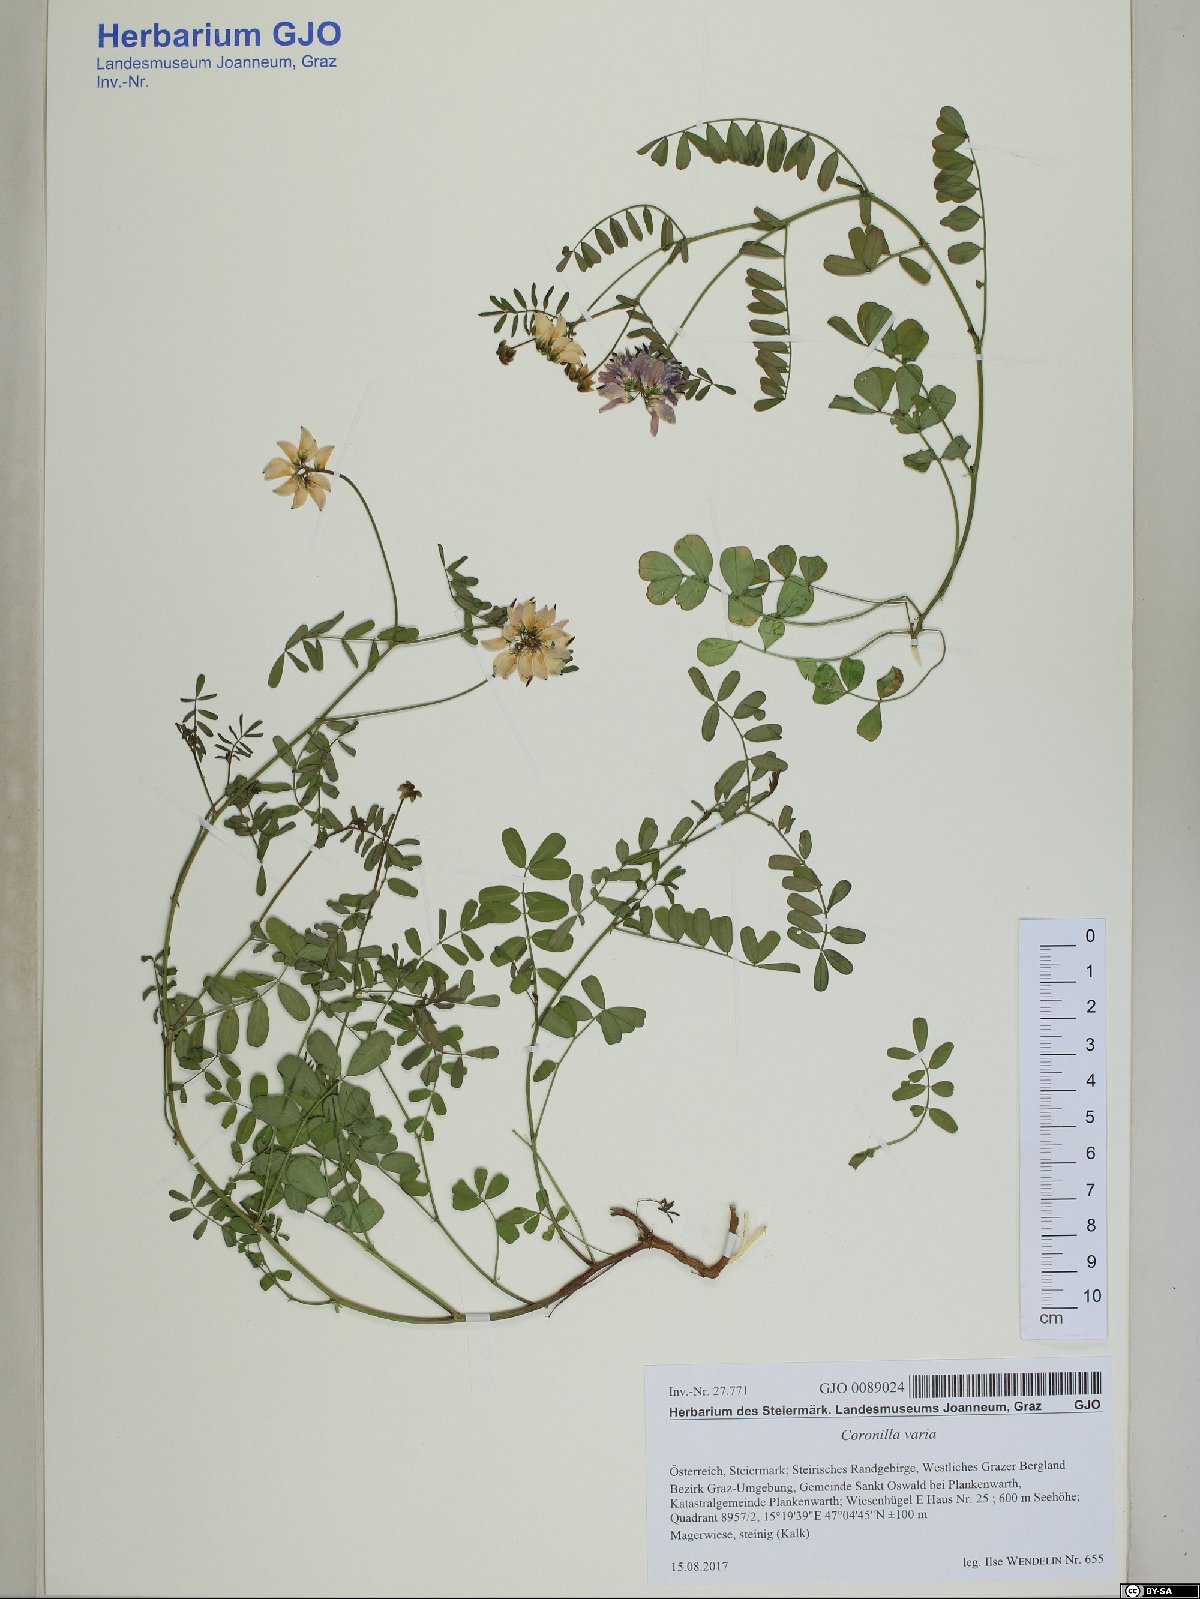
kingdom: Plantae
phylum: Tracheophyta
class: Magnoliopsida
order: Fabales
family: Fabaceae
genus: Coronilla
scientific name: Coronilla varia
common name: Crownvetch
